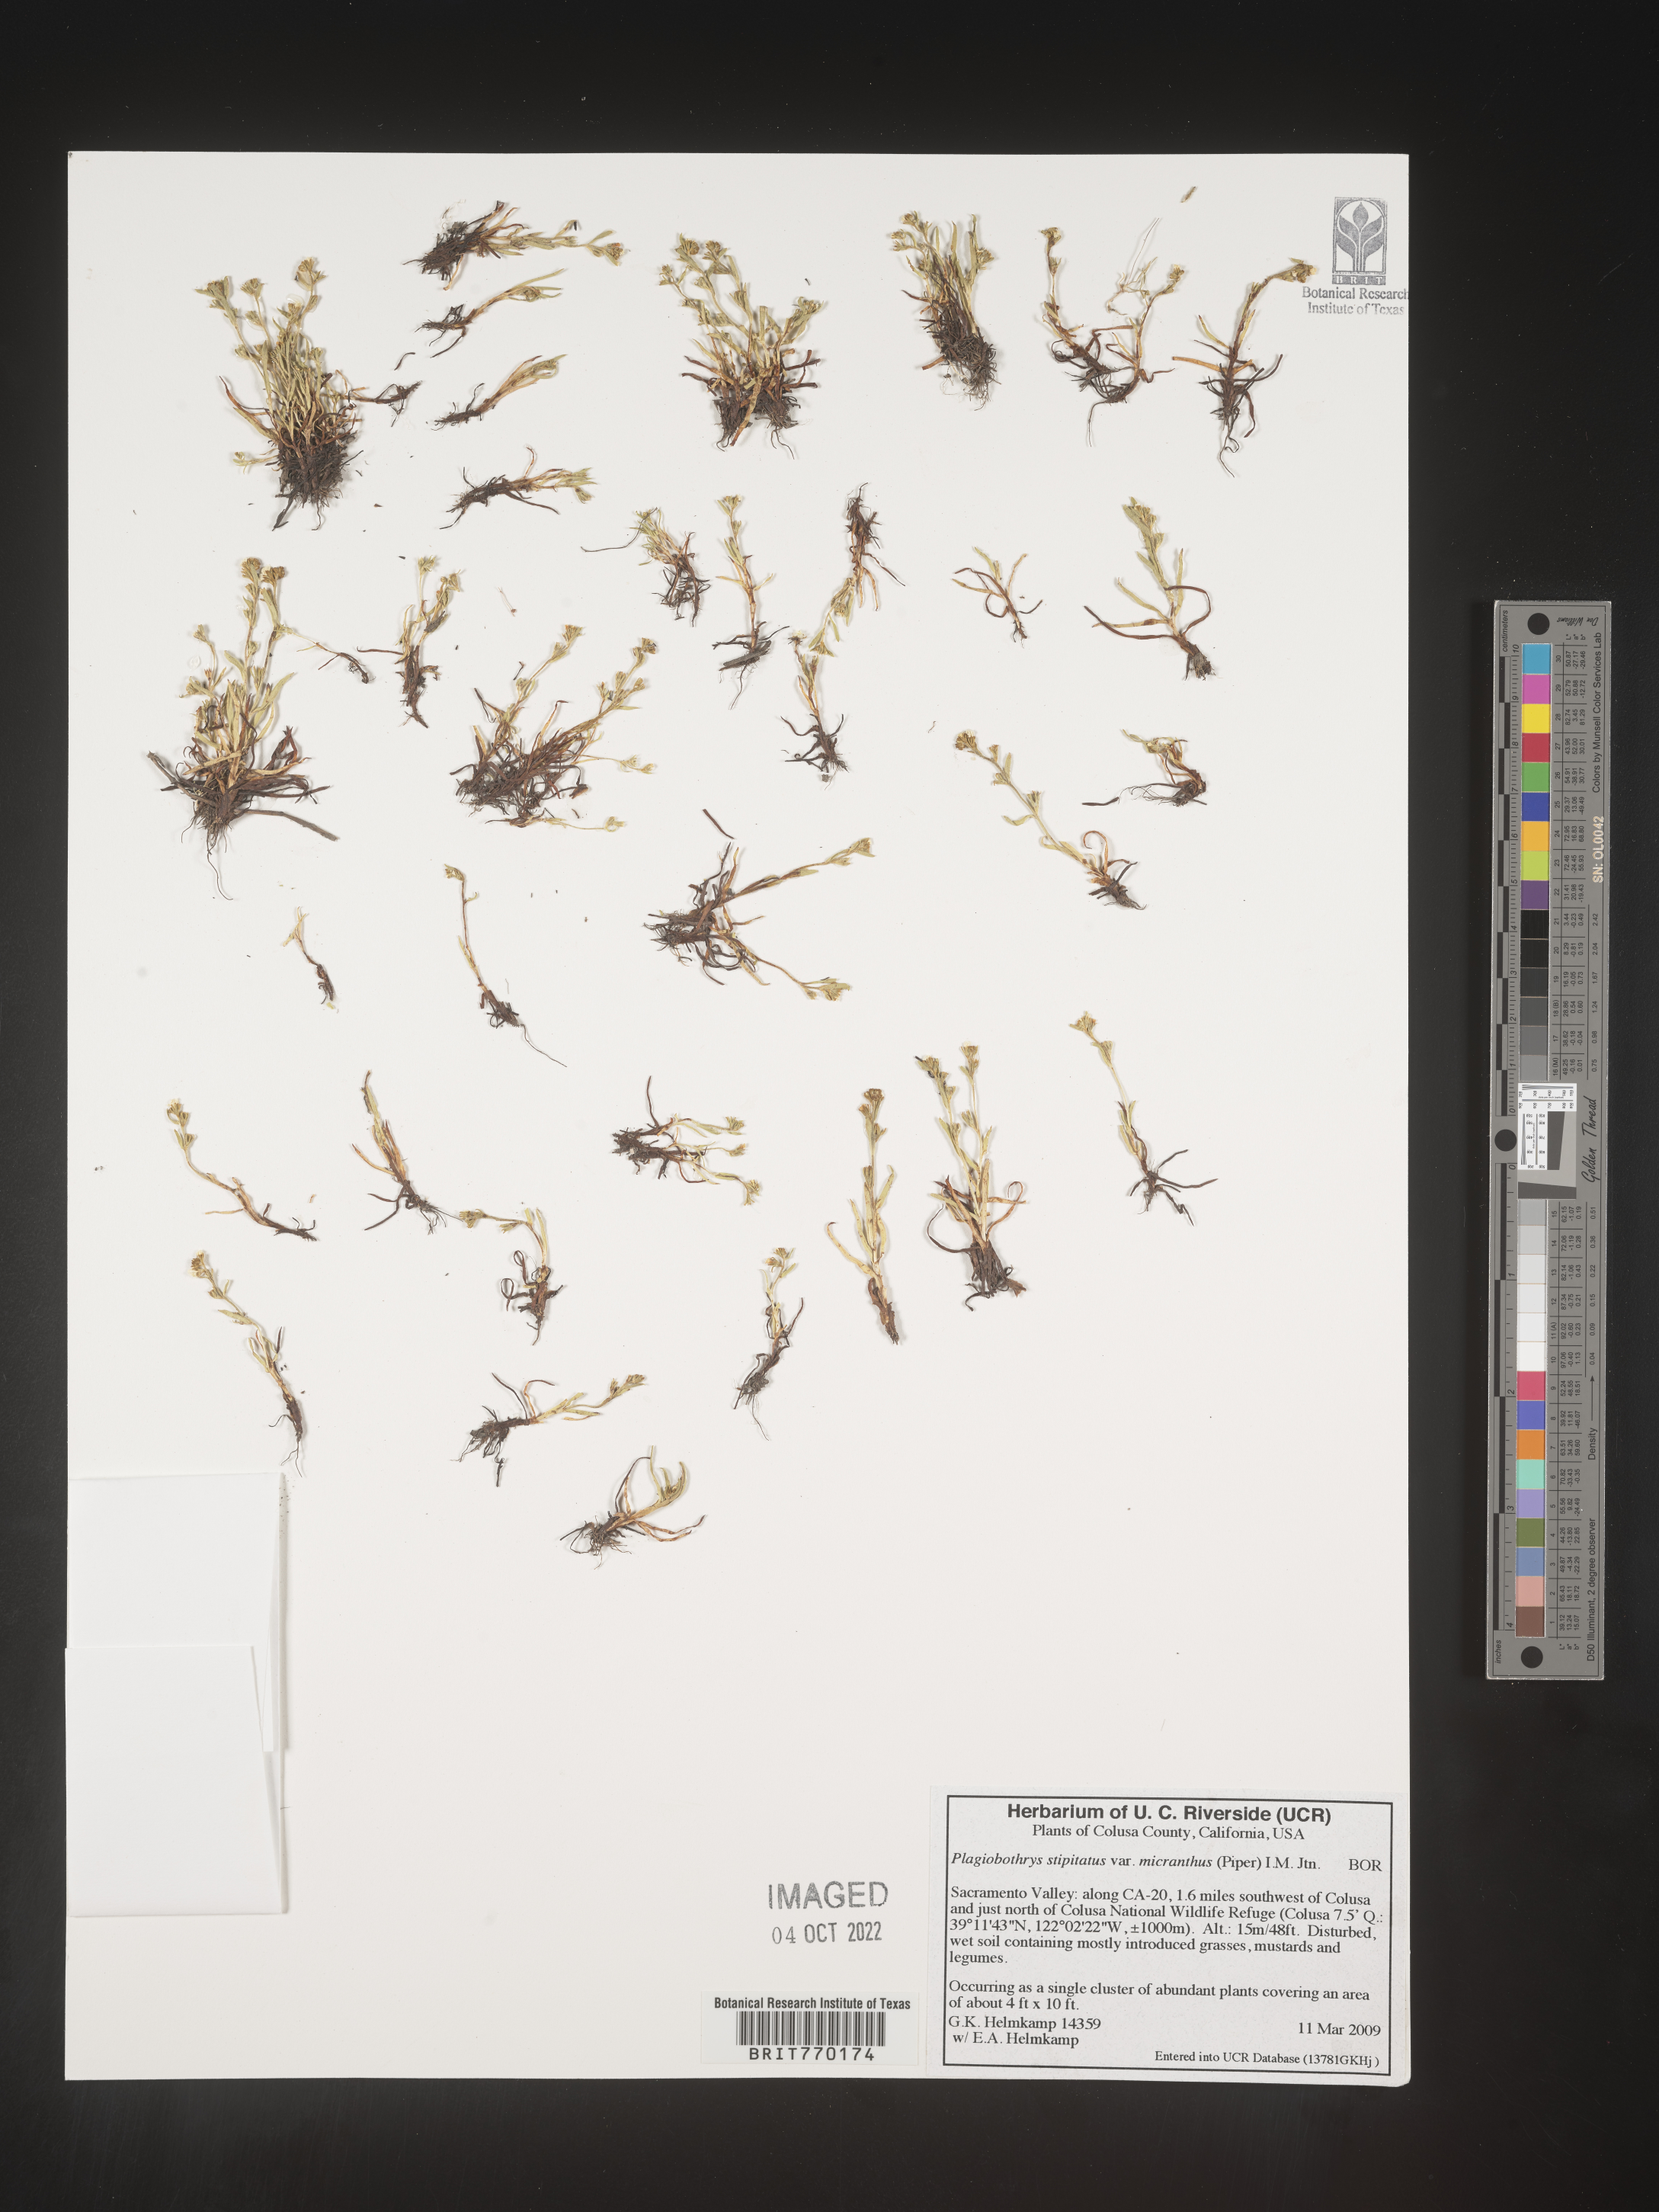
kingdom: Plantae
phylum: Tracheophyta
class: Magnoliopsida
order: Boraginales
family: Boraginaceae
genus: Plagiobothrys
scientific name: Plagiobothrys
